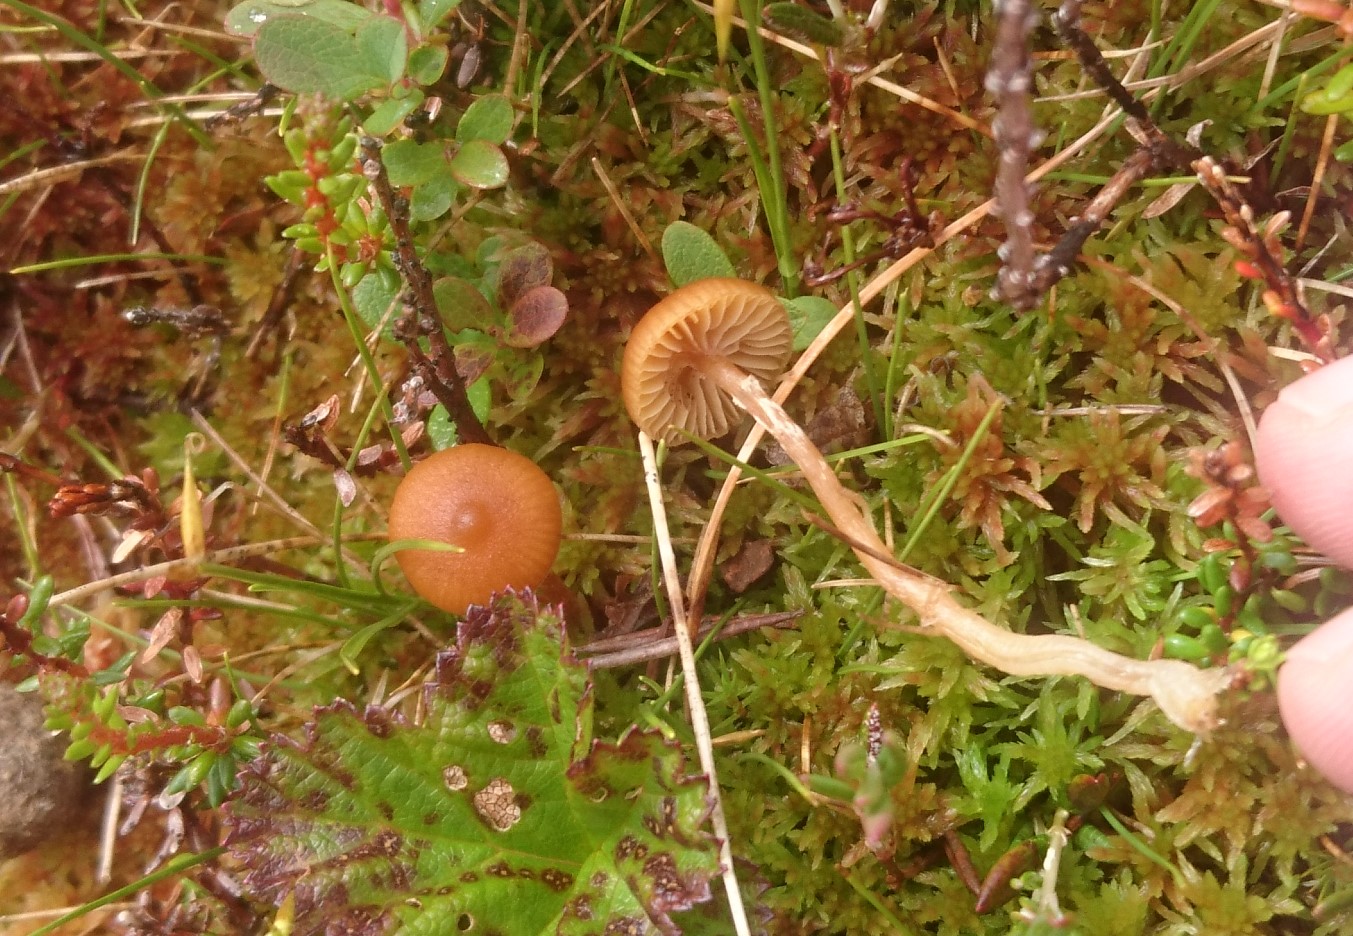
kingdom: Fungi
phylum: Basidiomycota
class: Agaricomycetes
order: Agaricales
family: Hymenogastraceae
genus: Galerina
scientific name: Galerina paludosa
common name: mose-hjelmhat
